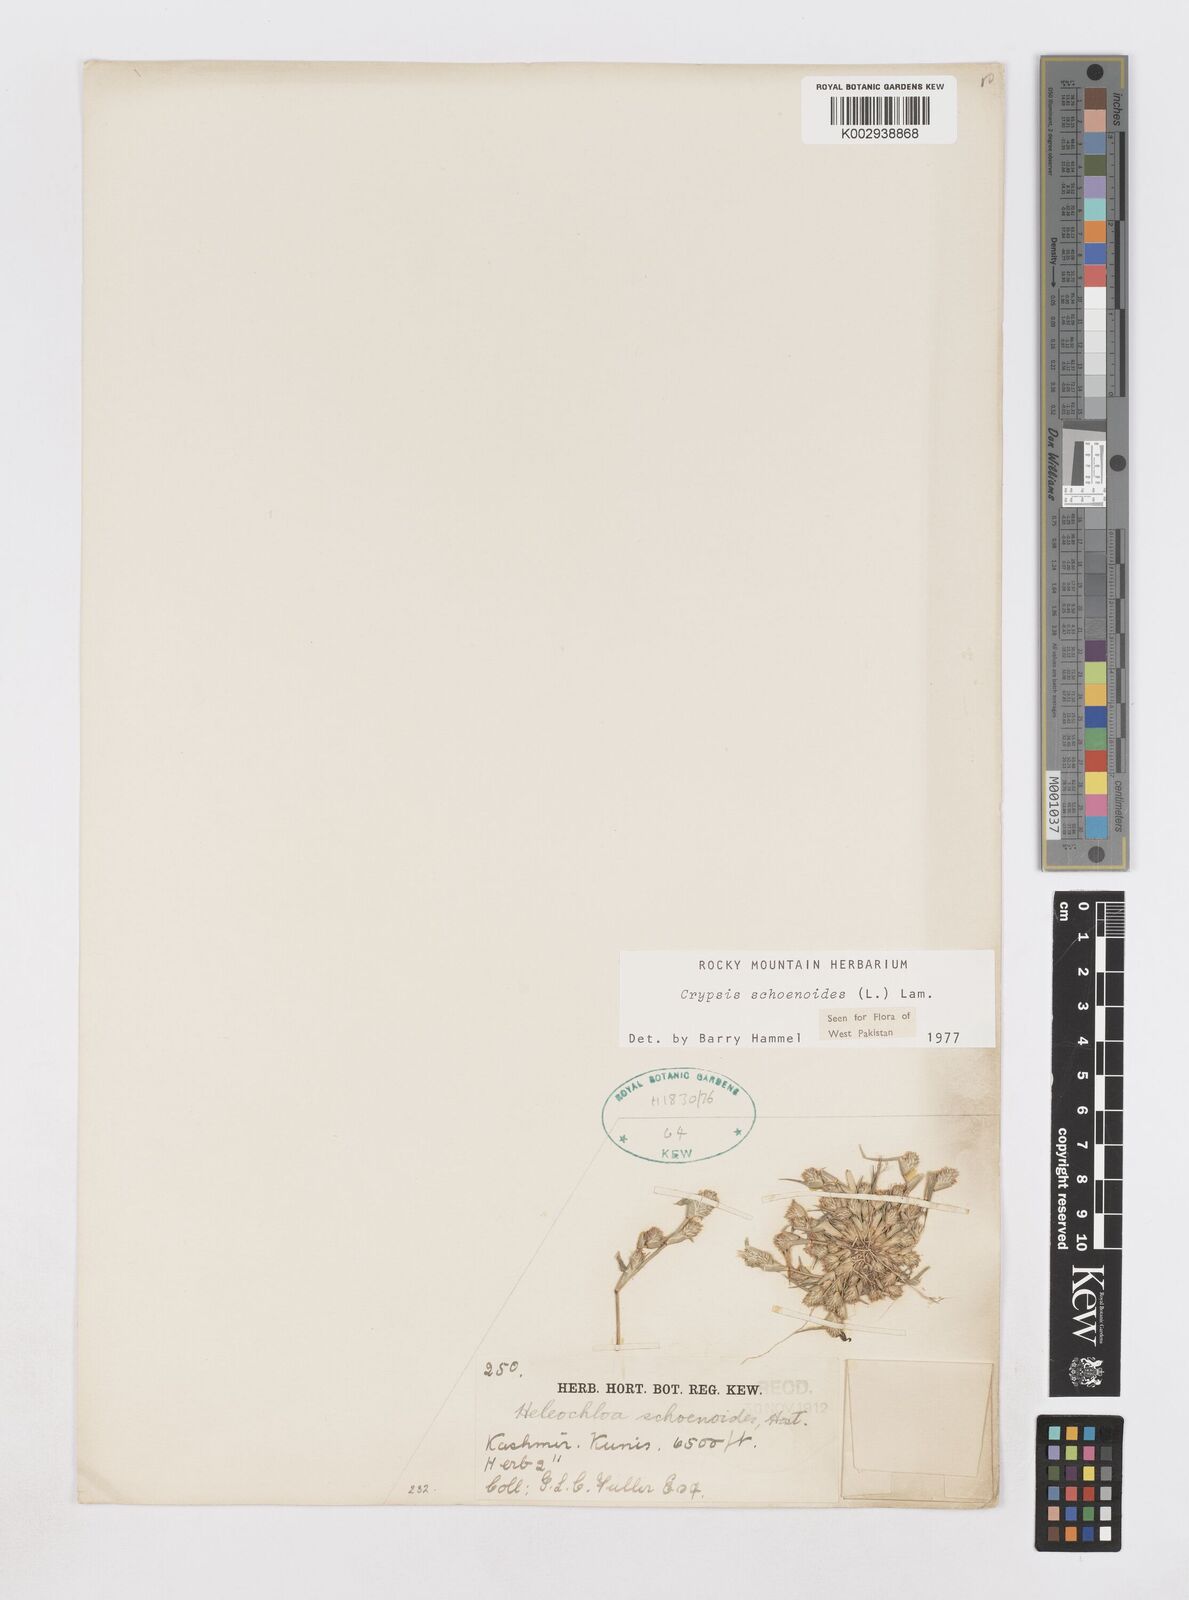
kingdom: Plantae
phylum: Tracheophyta
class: Liliopsida
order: Poales
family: Poaceae
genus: Sporobolus
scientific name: Sporobolus schoenoides
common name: Rush-like timothy
